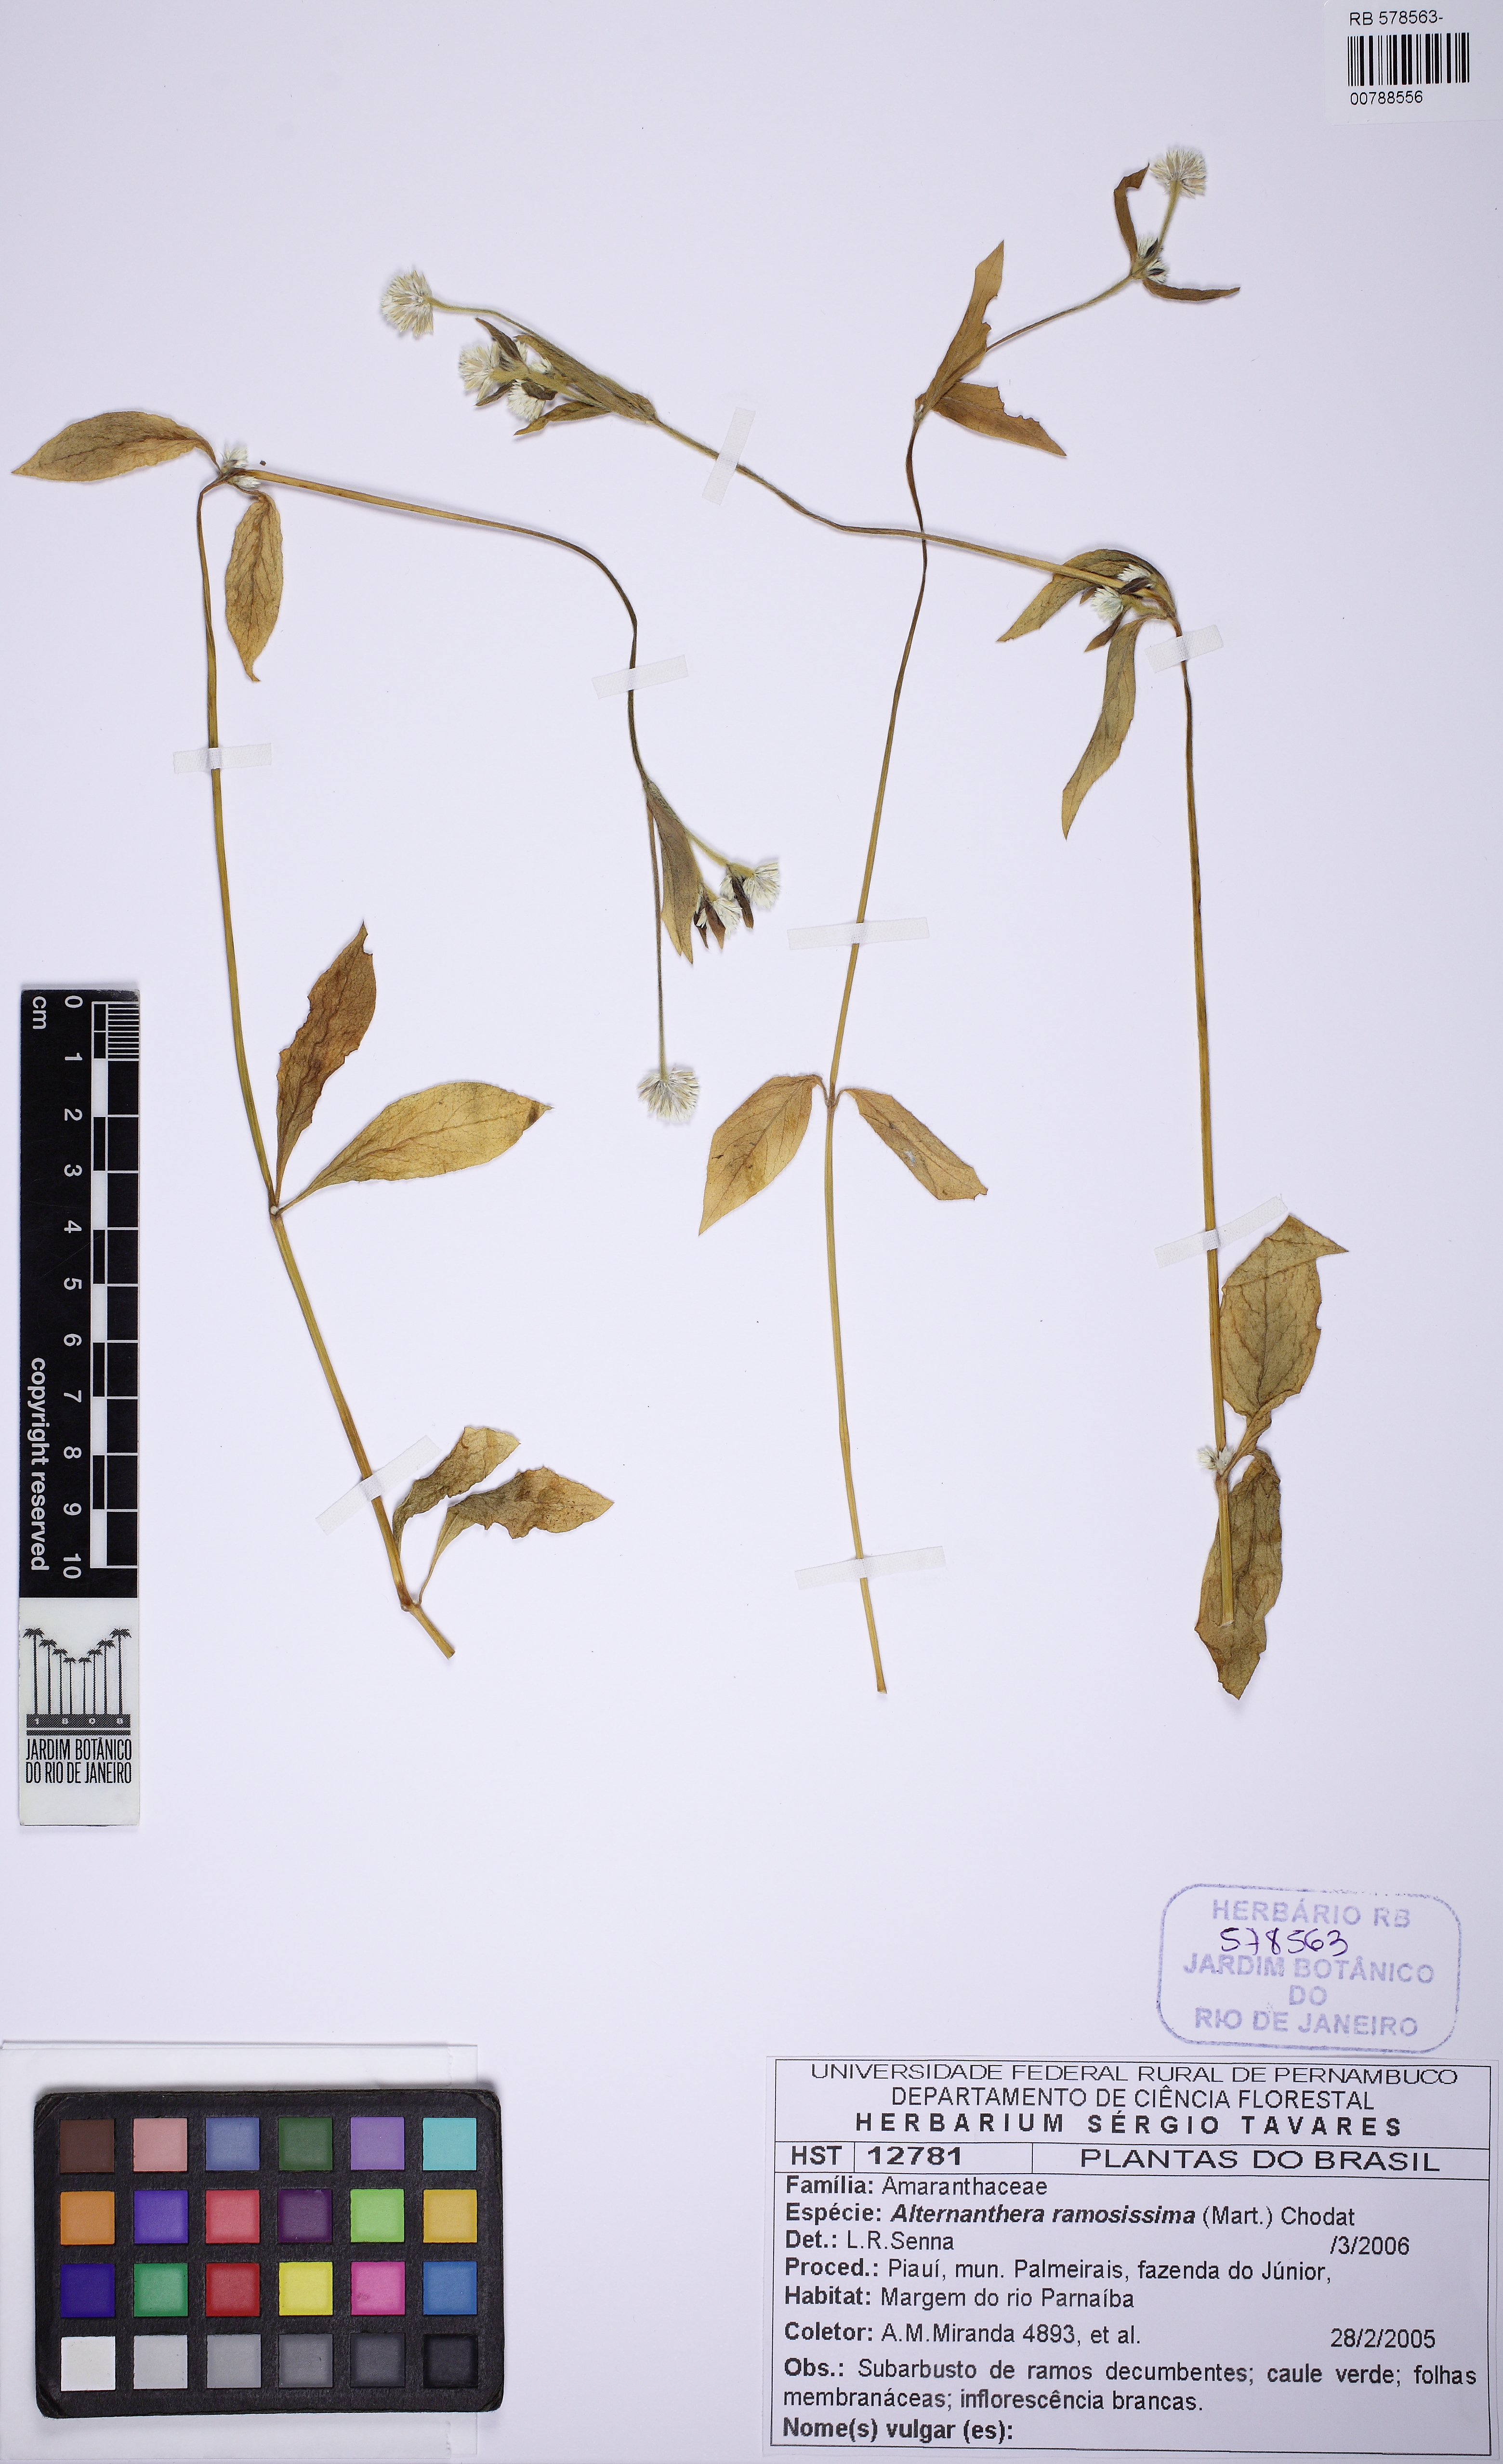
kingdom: Plantae
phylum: Tracheophyta
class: Magnoliopsida
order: Caryophyllales
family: Amaranthaceae
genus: Alternanthera
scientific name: Alternanthera brasiliana
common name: Brazilian joyweed
